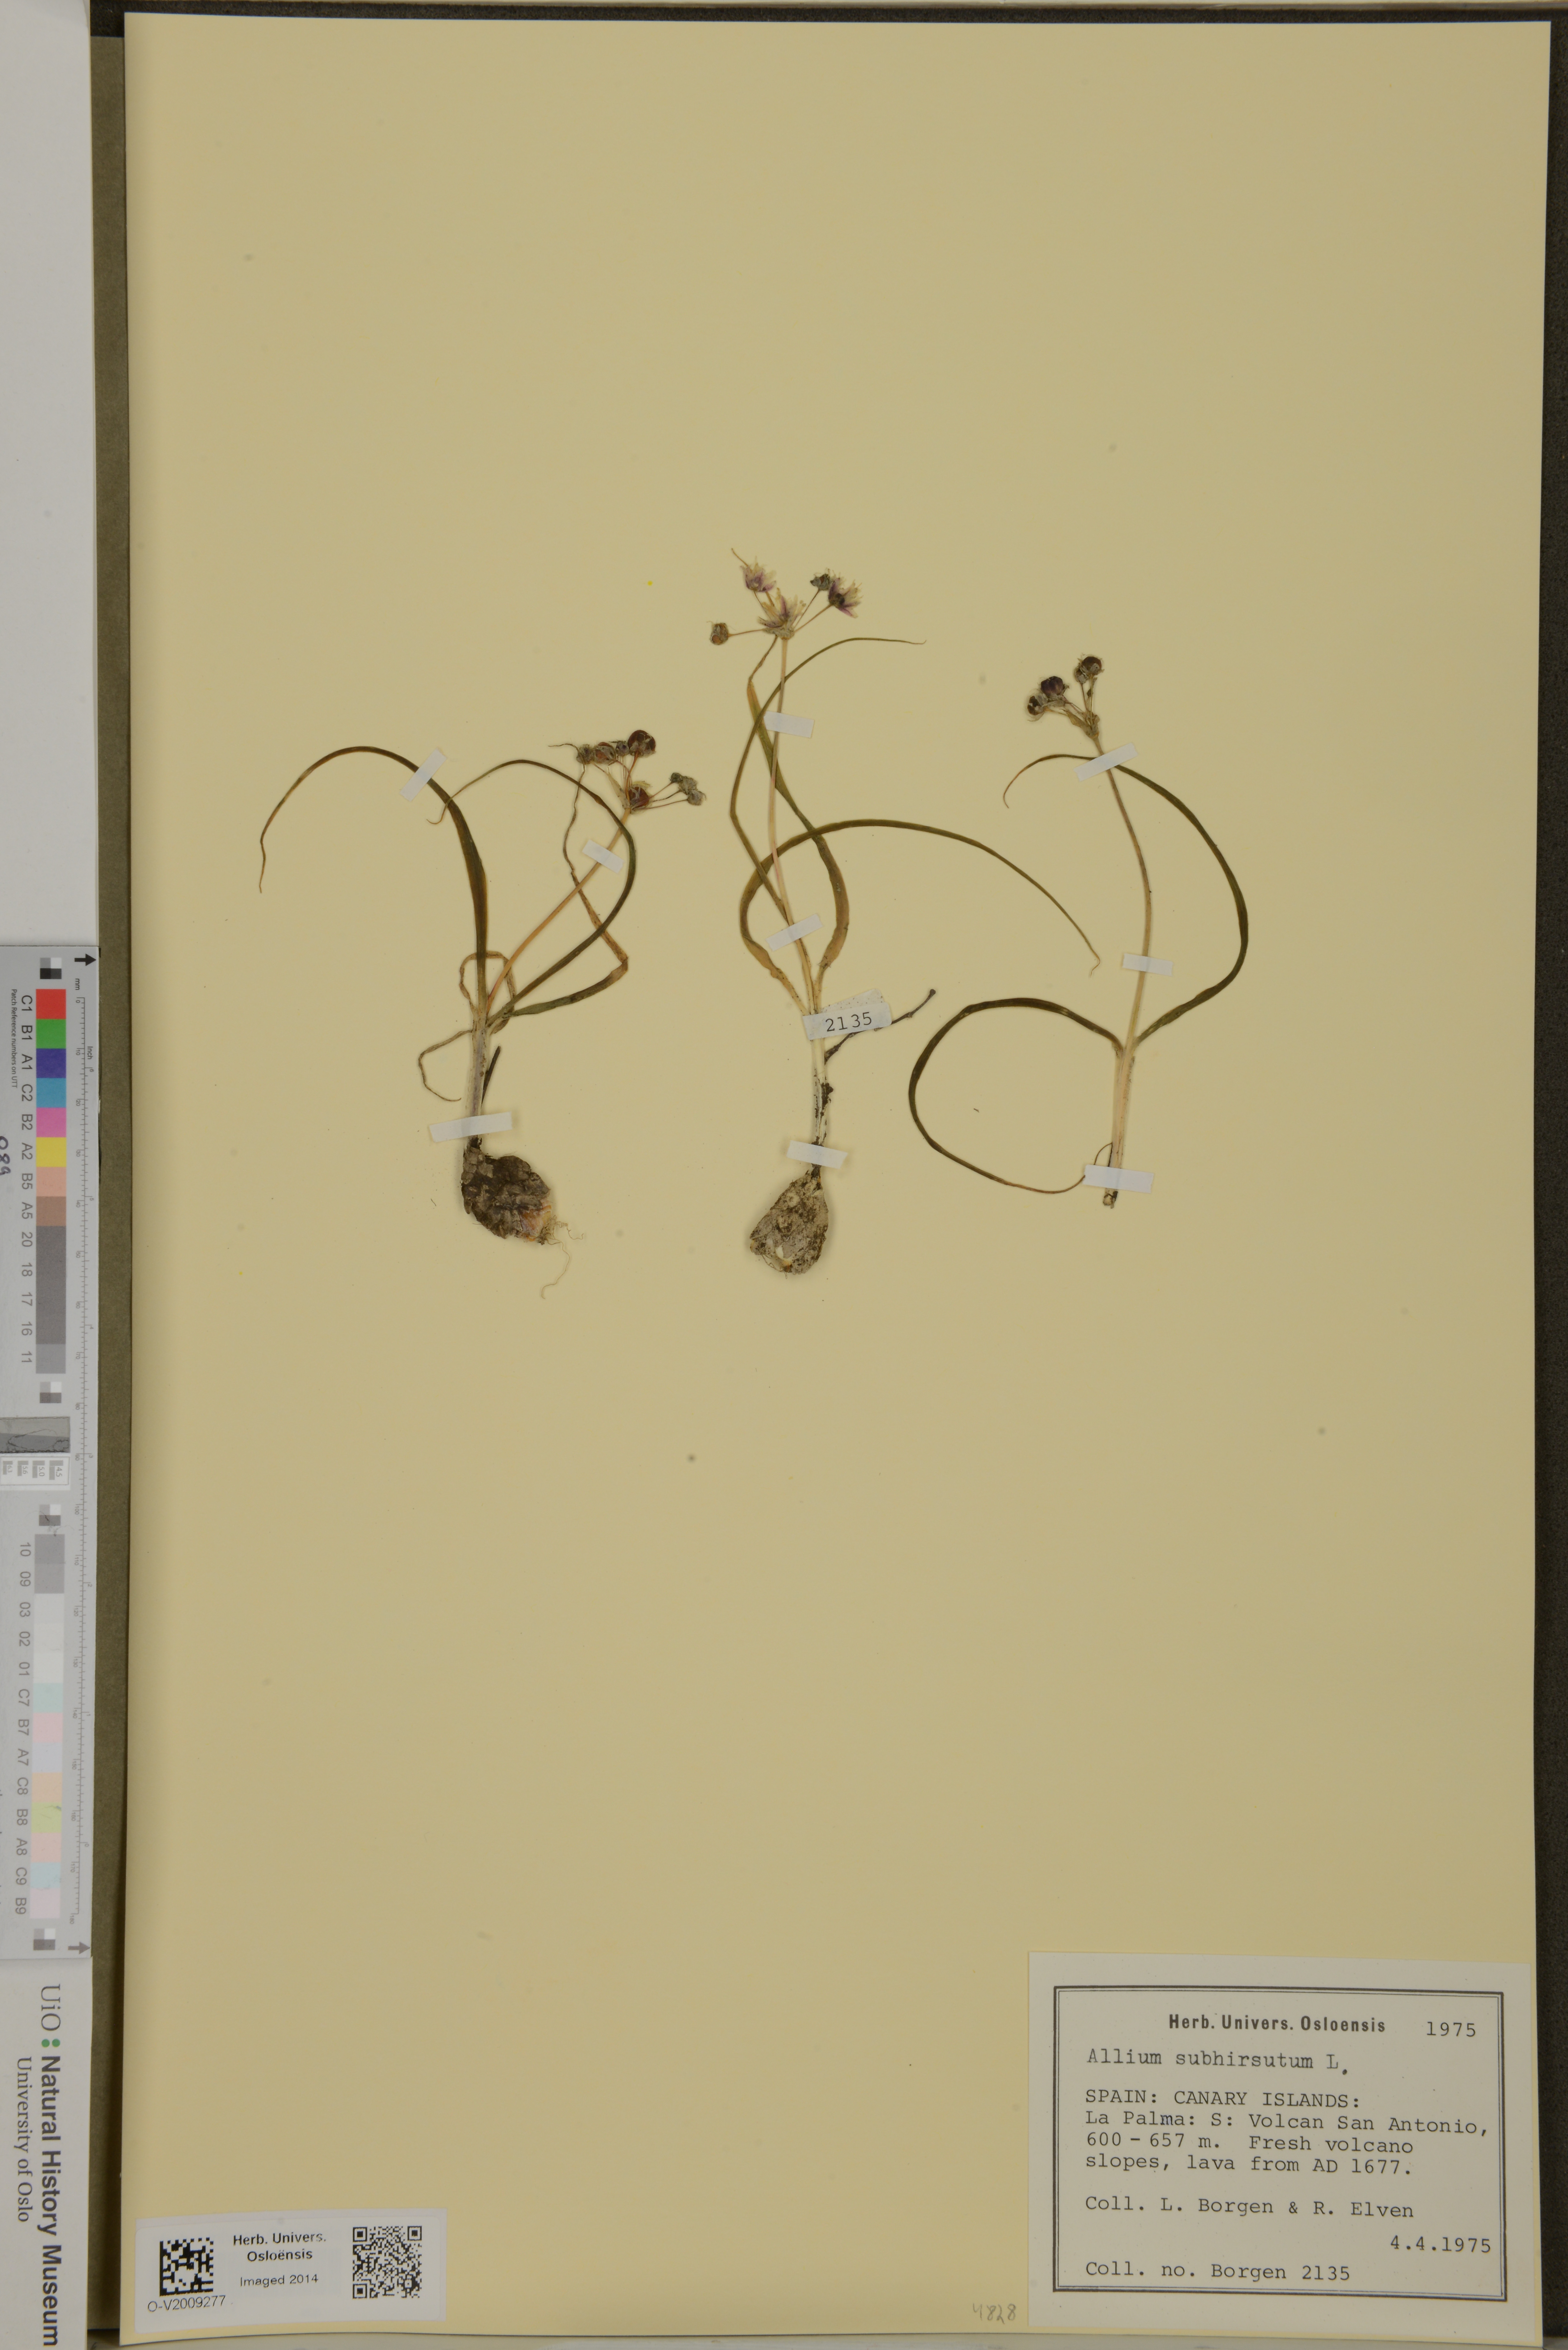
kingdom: Plantae
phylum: Tracheophyta
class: Liliopsida
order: Asparagales
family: Amaryllidaceae
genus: Allium
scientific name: Allium subhirsutum
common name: Hairy garlic
